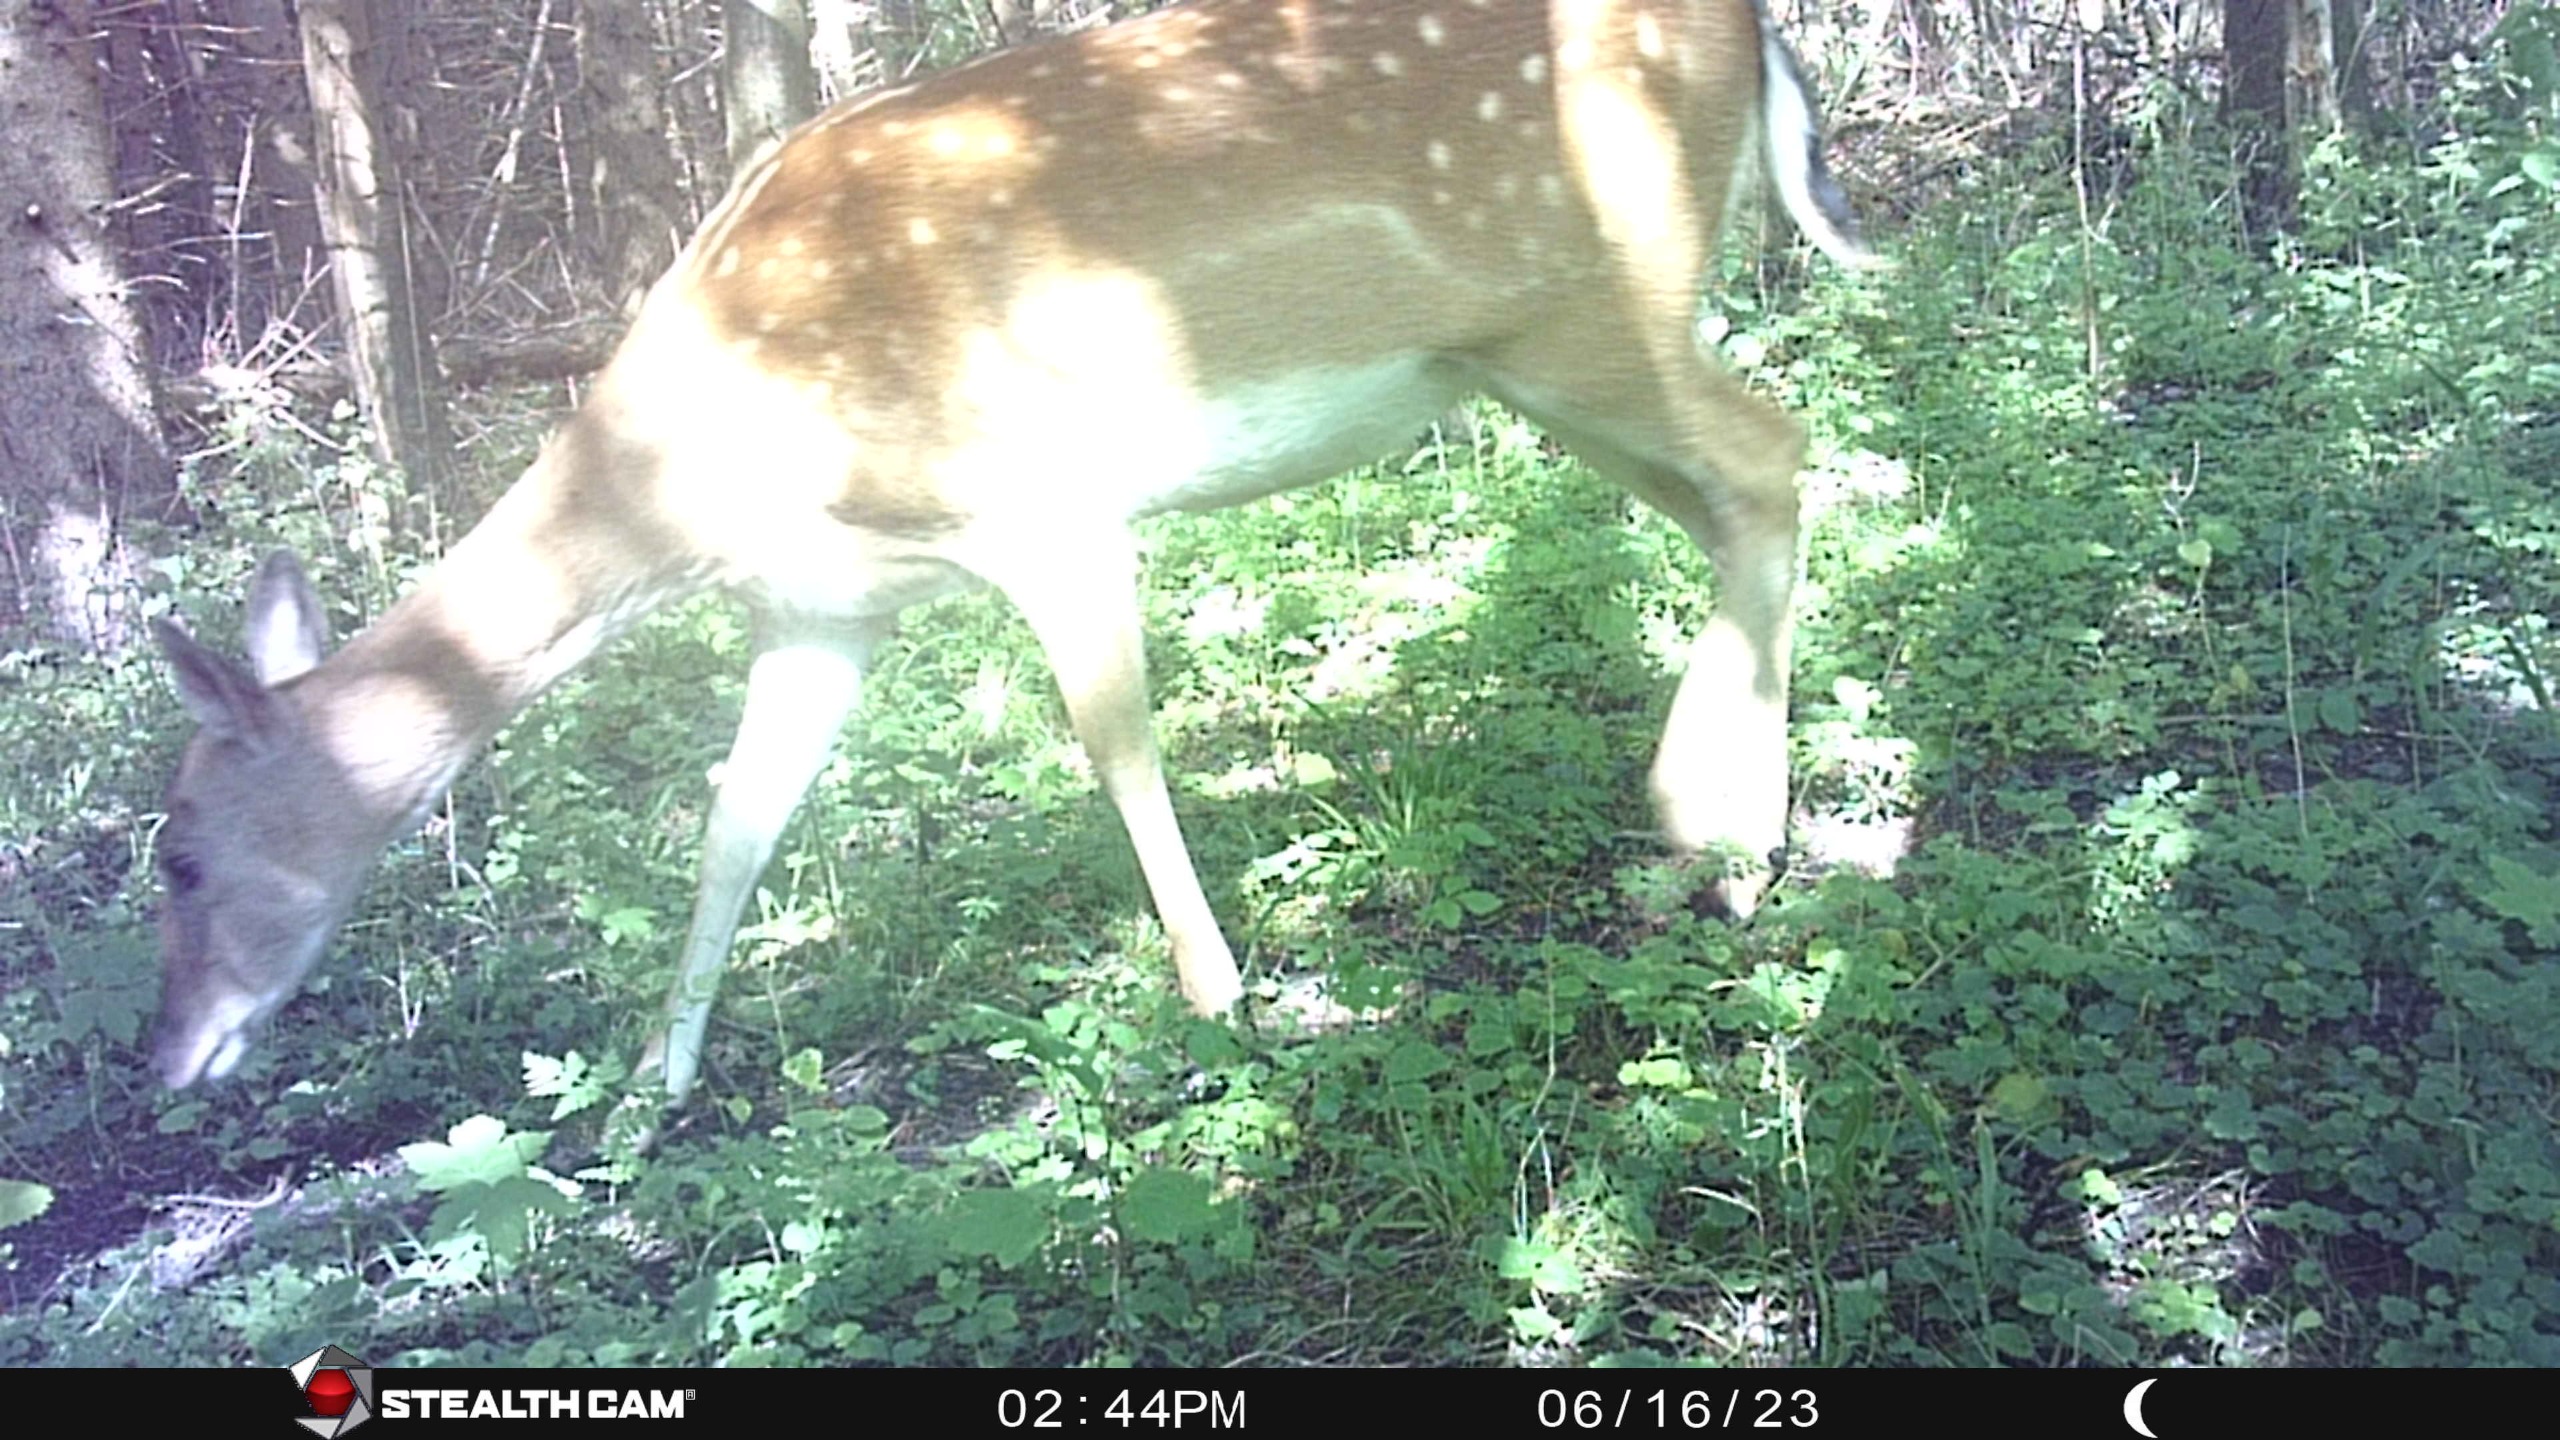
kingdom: Animalia
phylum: Chordata
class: Mammalia
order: Artiodactyla
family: Cervidae
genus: Dama
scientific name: Dama dama
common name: Dådyr
